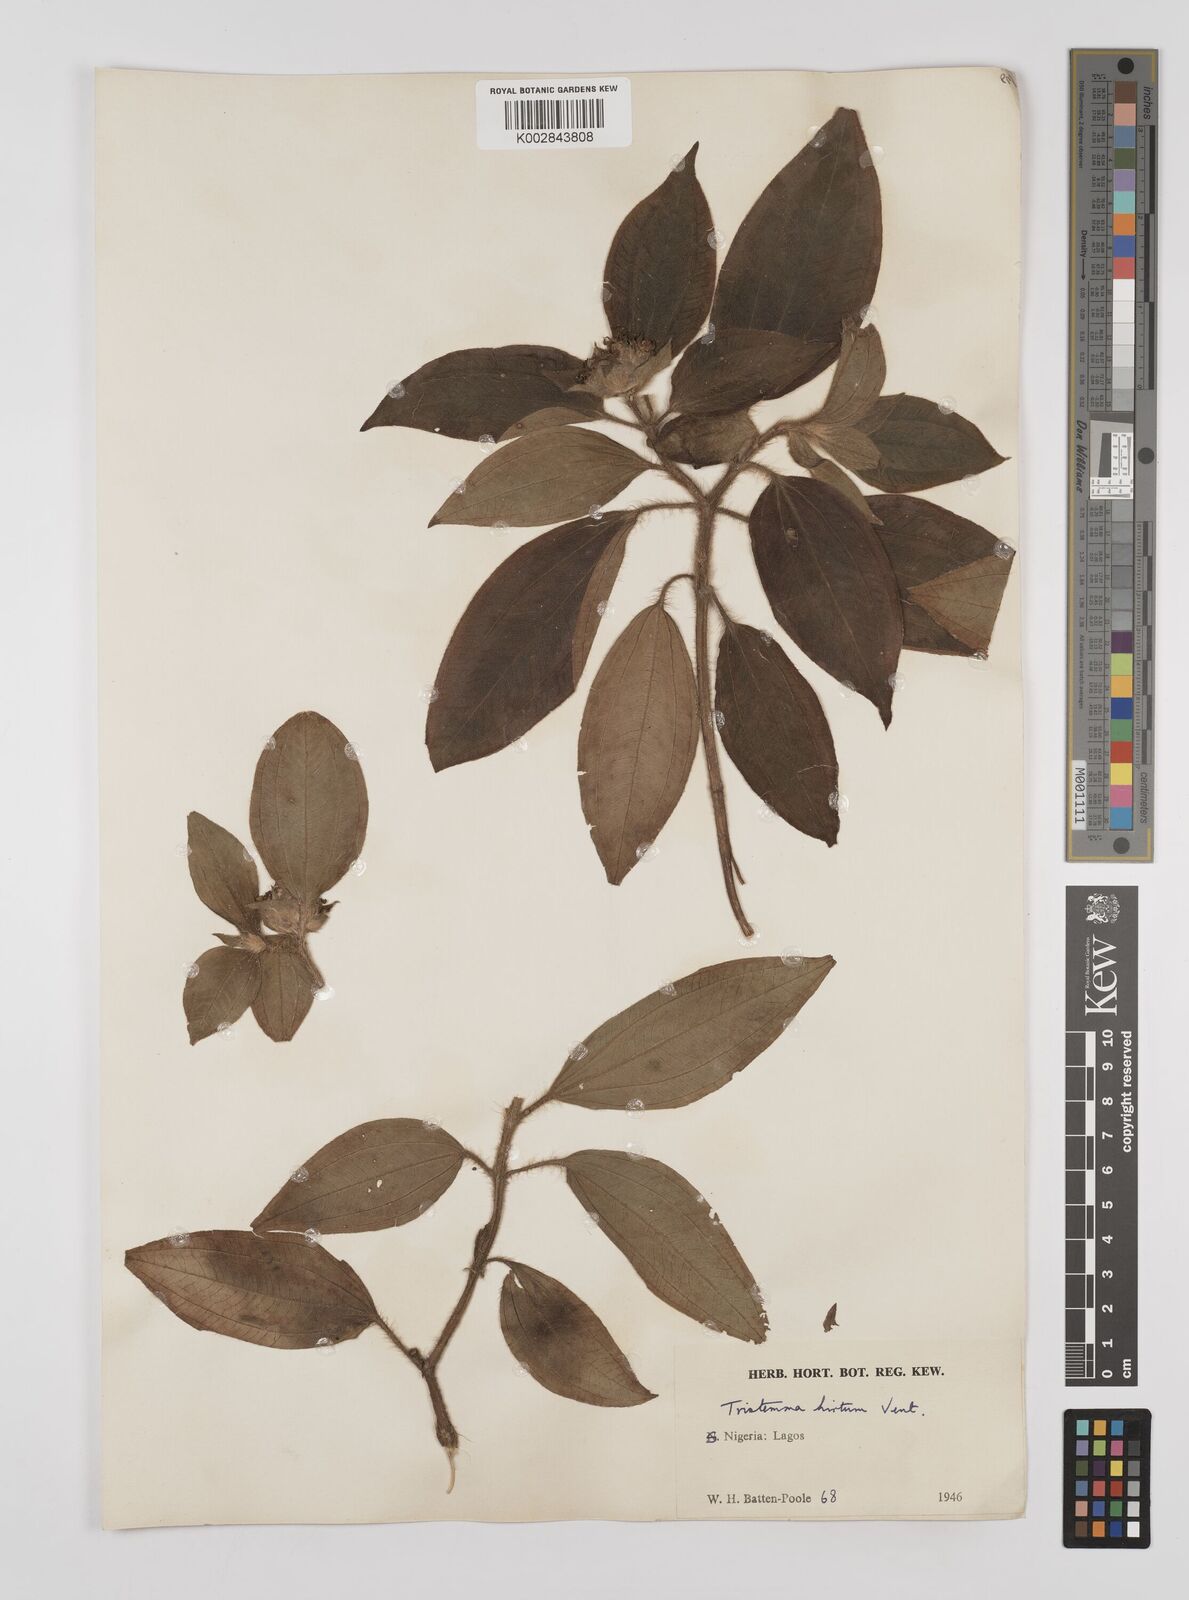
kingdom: Plantae
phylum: Tracheophyta
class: Magnoliopsida
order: Myrtales
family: Melastomataceae
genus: Tristemma
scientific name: Tristemma hirtum
